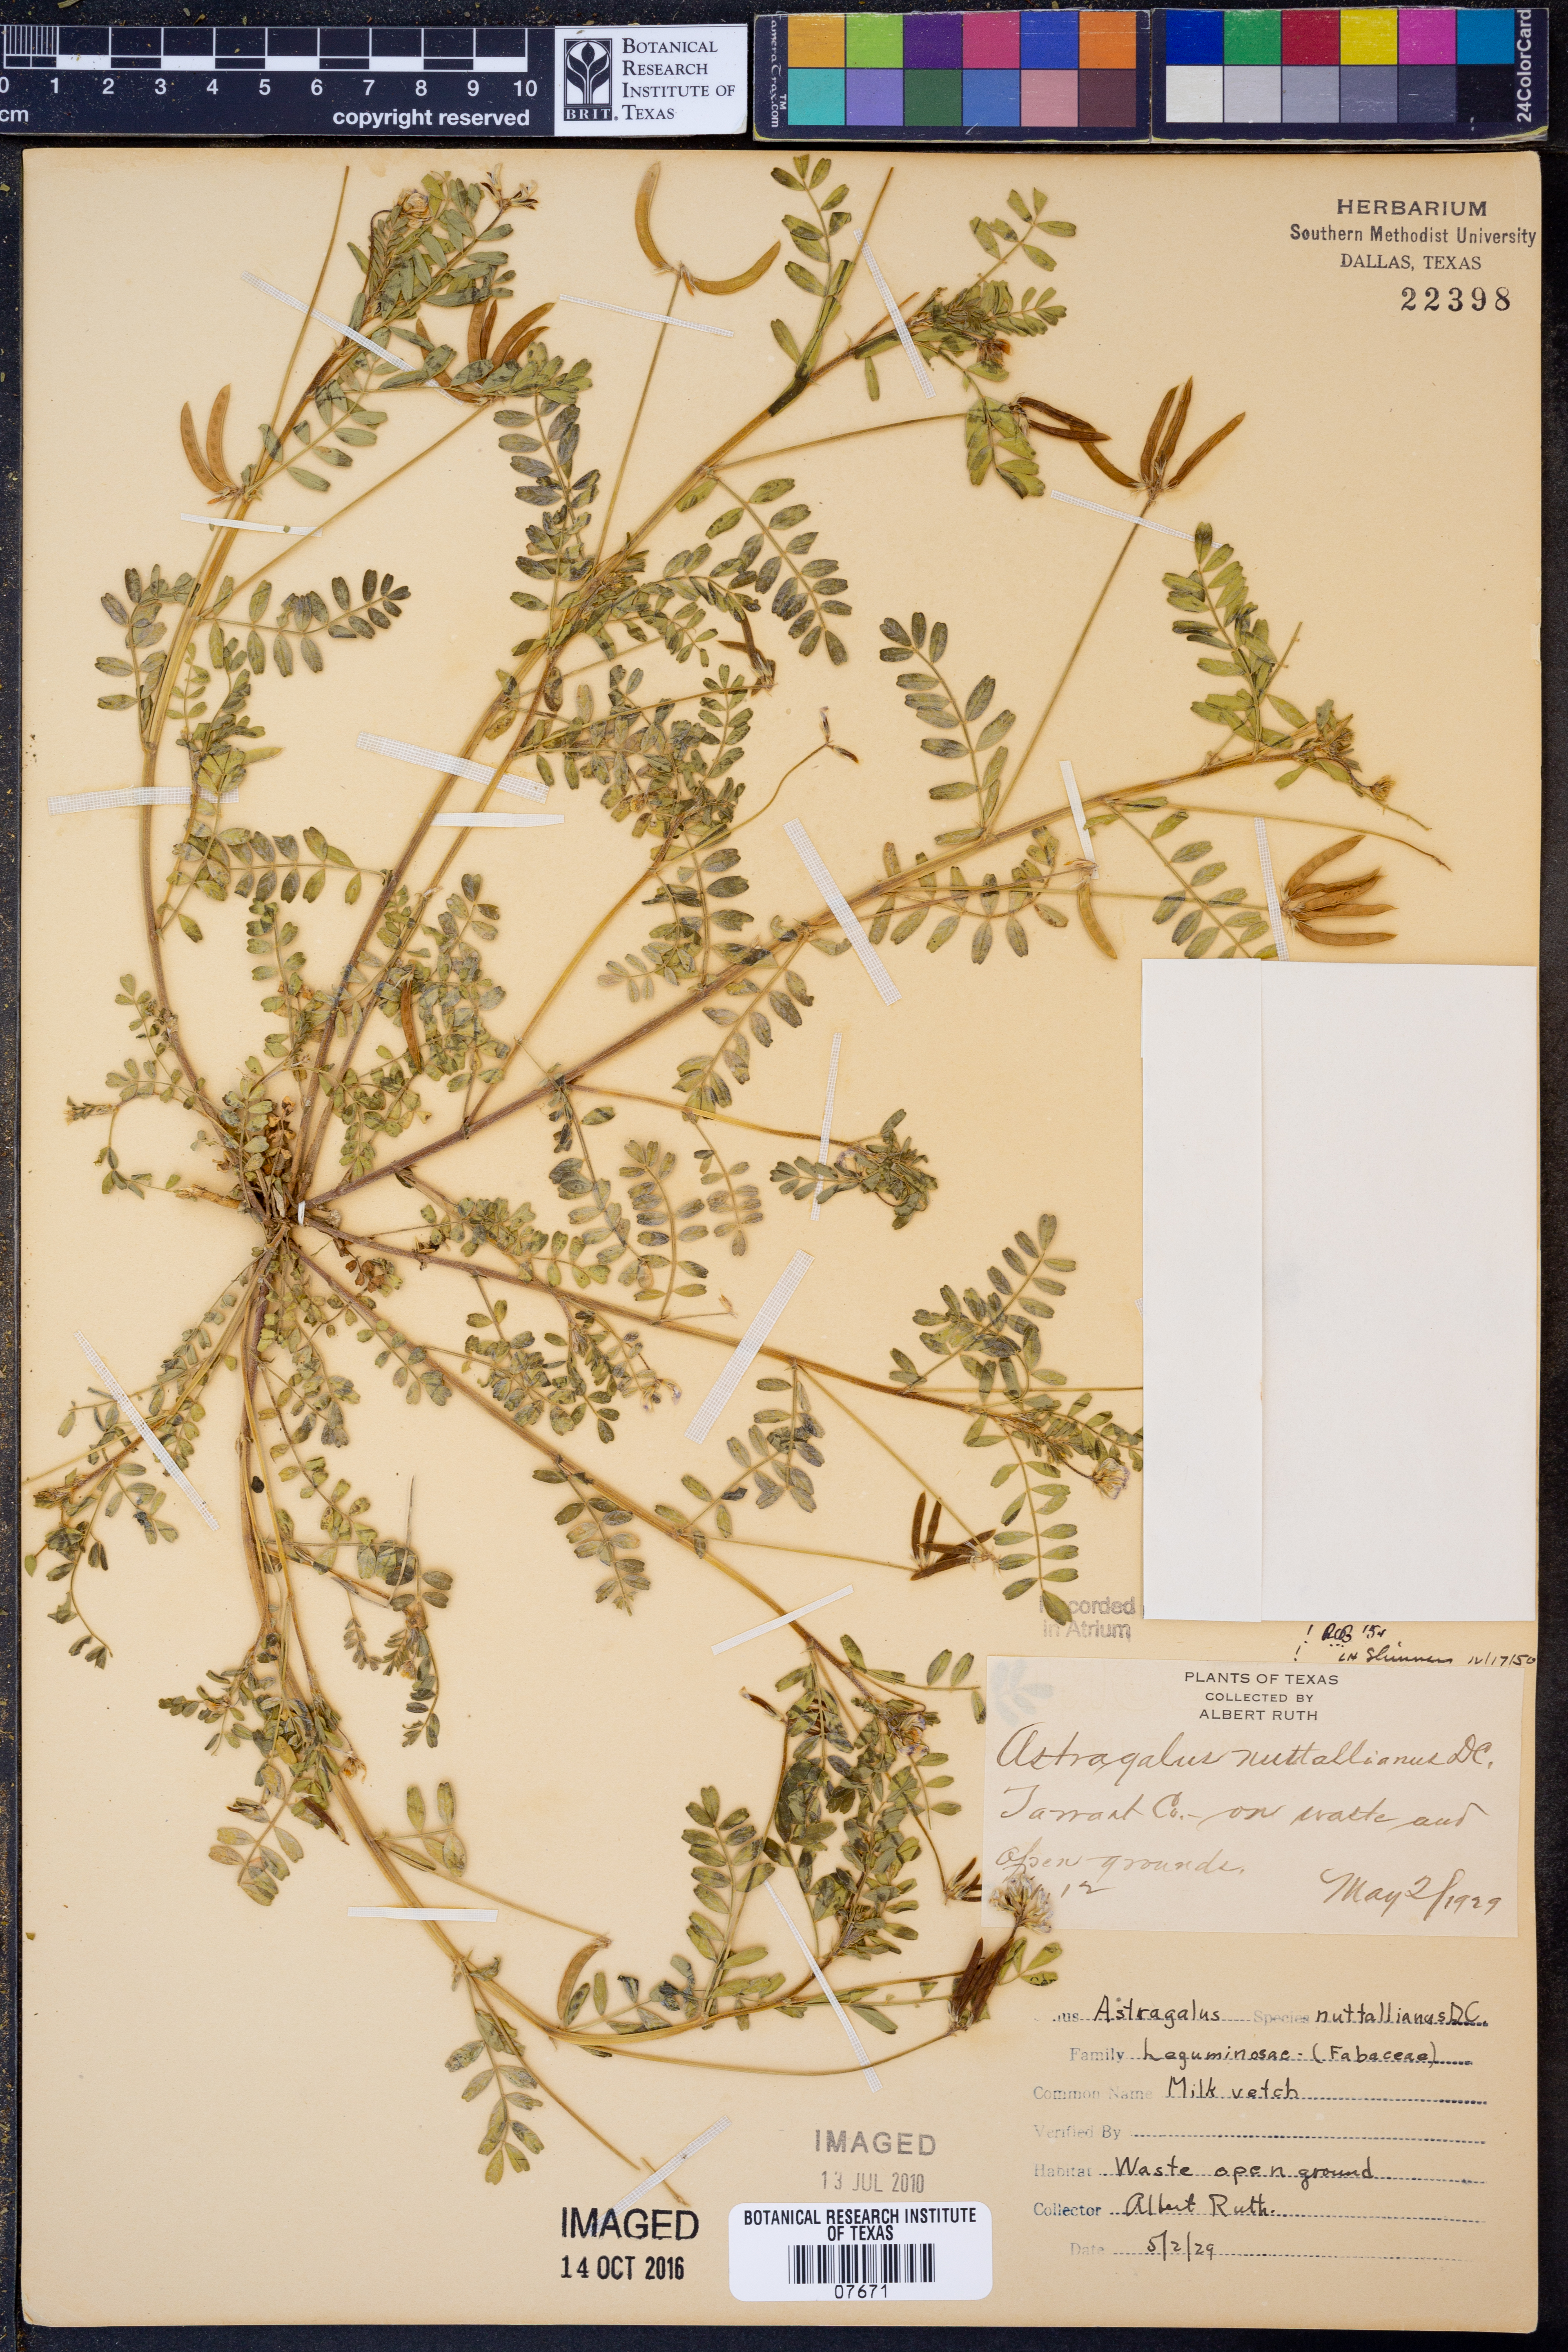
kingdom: Plantae
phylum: Tracheophyta
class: Magnoliopsida
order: Fabales
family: Fabaceae
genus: Astragalus
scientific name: Astragalus nuttallianus
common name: Smallflowered milkvetch
